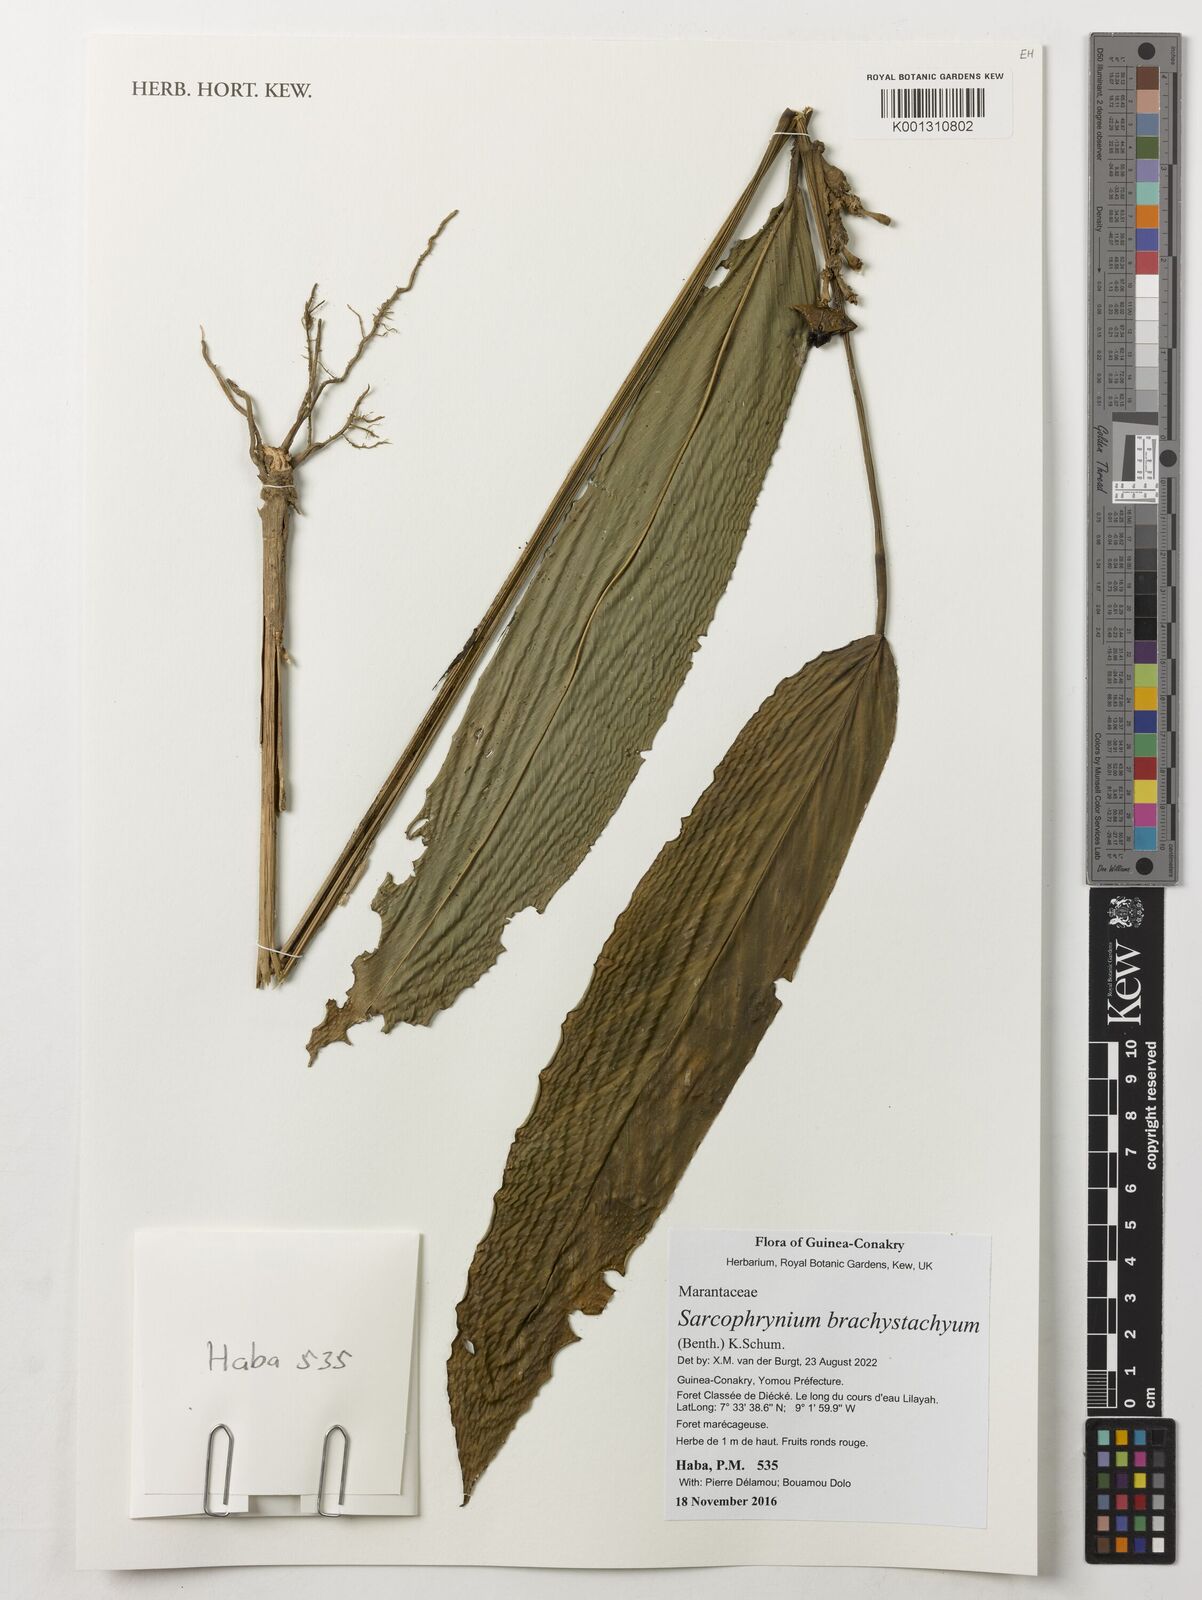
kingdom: Plantae
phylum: Tracheophyta
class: Liliopsida
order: Zingiberales
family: Marantaceae
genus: Sarcophrynium
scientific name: Sarcophrynium brachystachyum
